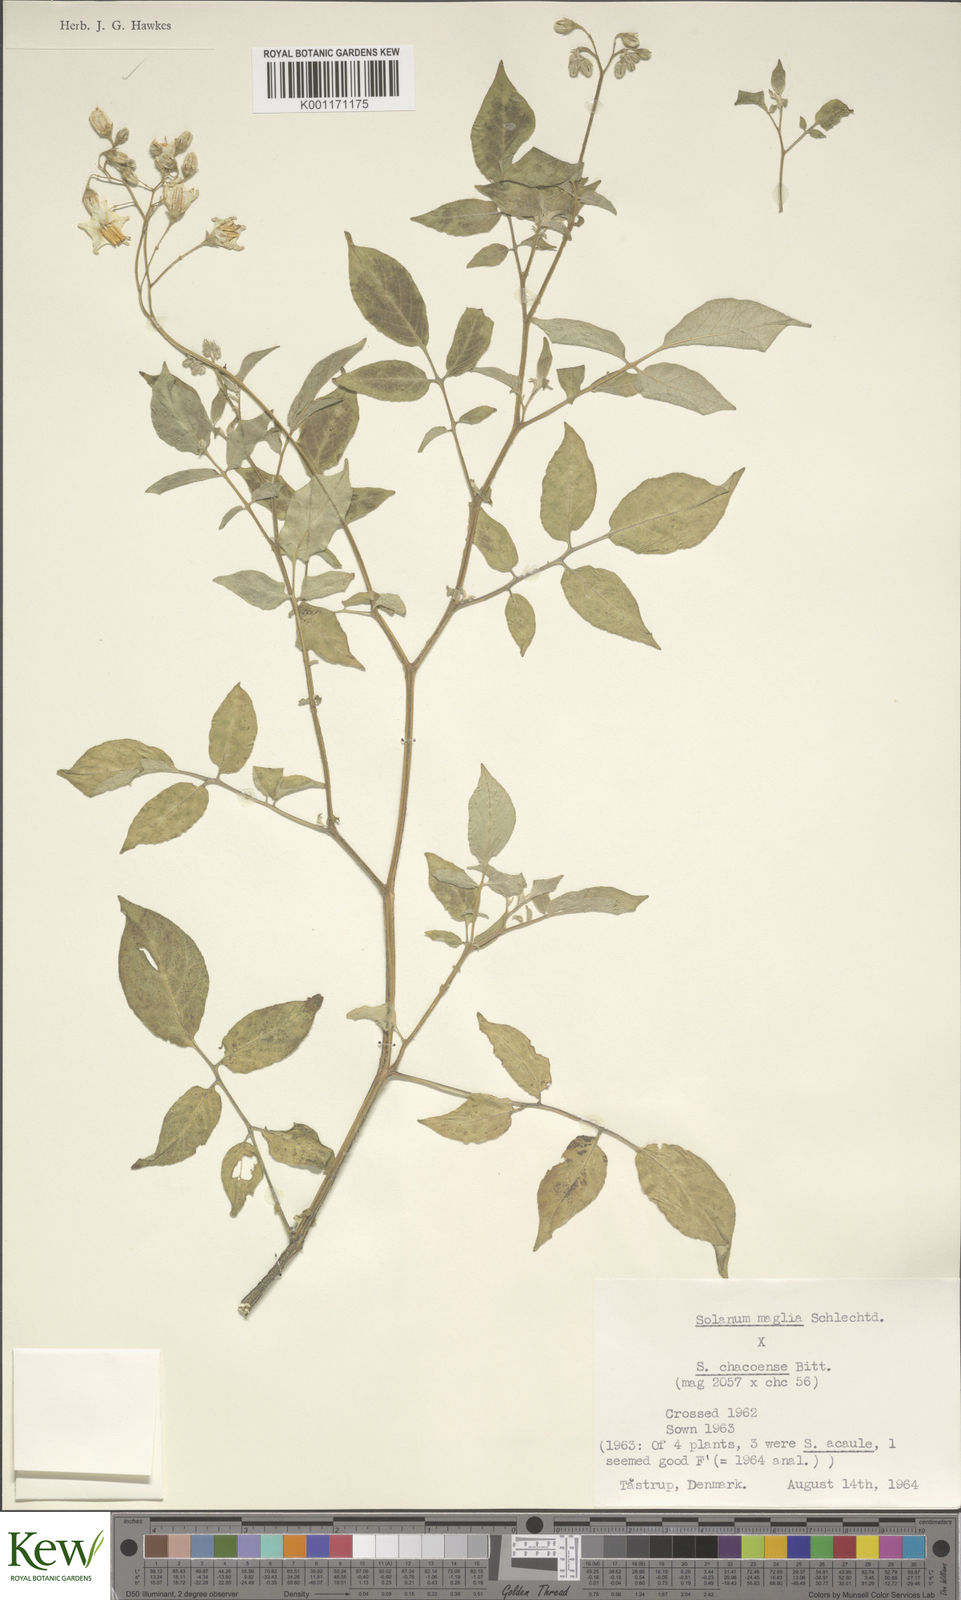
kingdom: Plantae
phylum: Tracheophyta
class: Magnoliopsida
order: Solanales
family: Solanaceae
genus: Solanum
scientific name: Solanum chacoense
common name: Chaco potato
